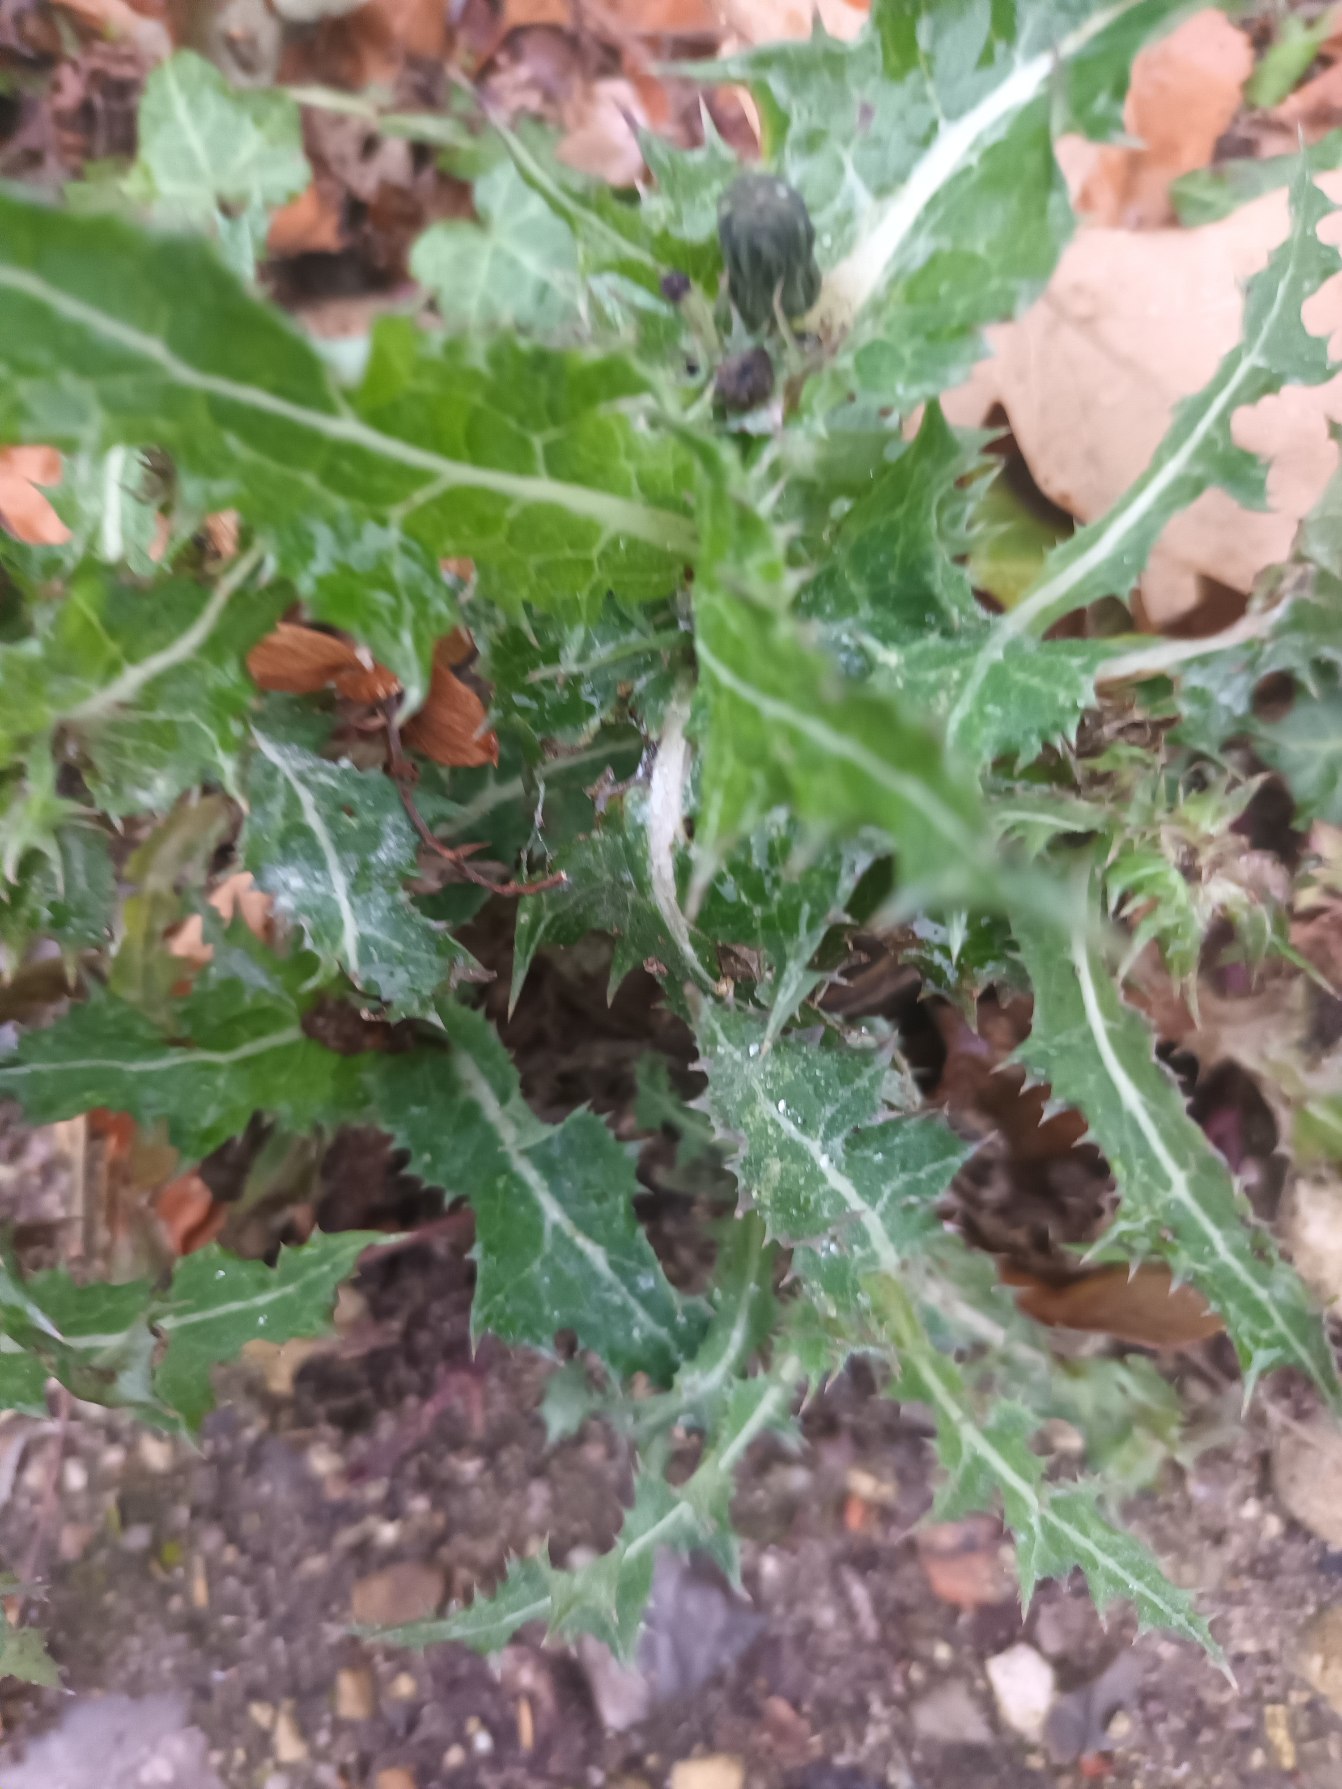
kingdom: Plantae
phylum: Tracheophyta
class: Magnoliopsida
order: Asterales
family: Asteraceae
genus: Sonchus
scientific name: Sonchus asper
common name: Ru svinemælk
